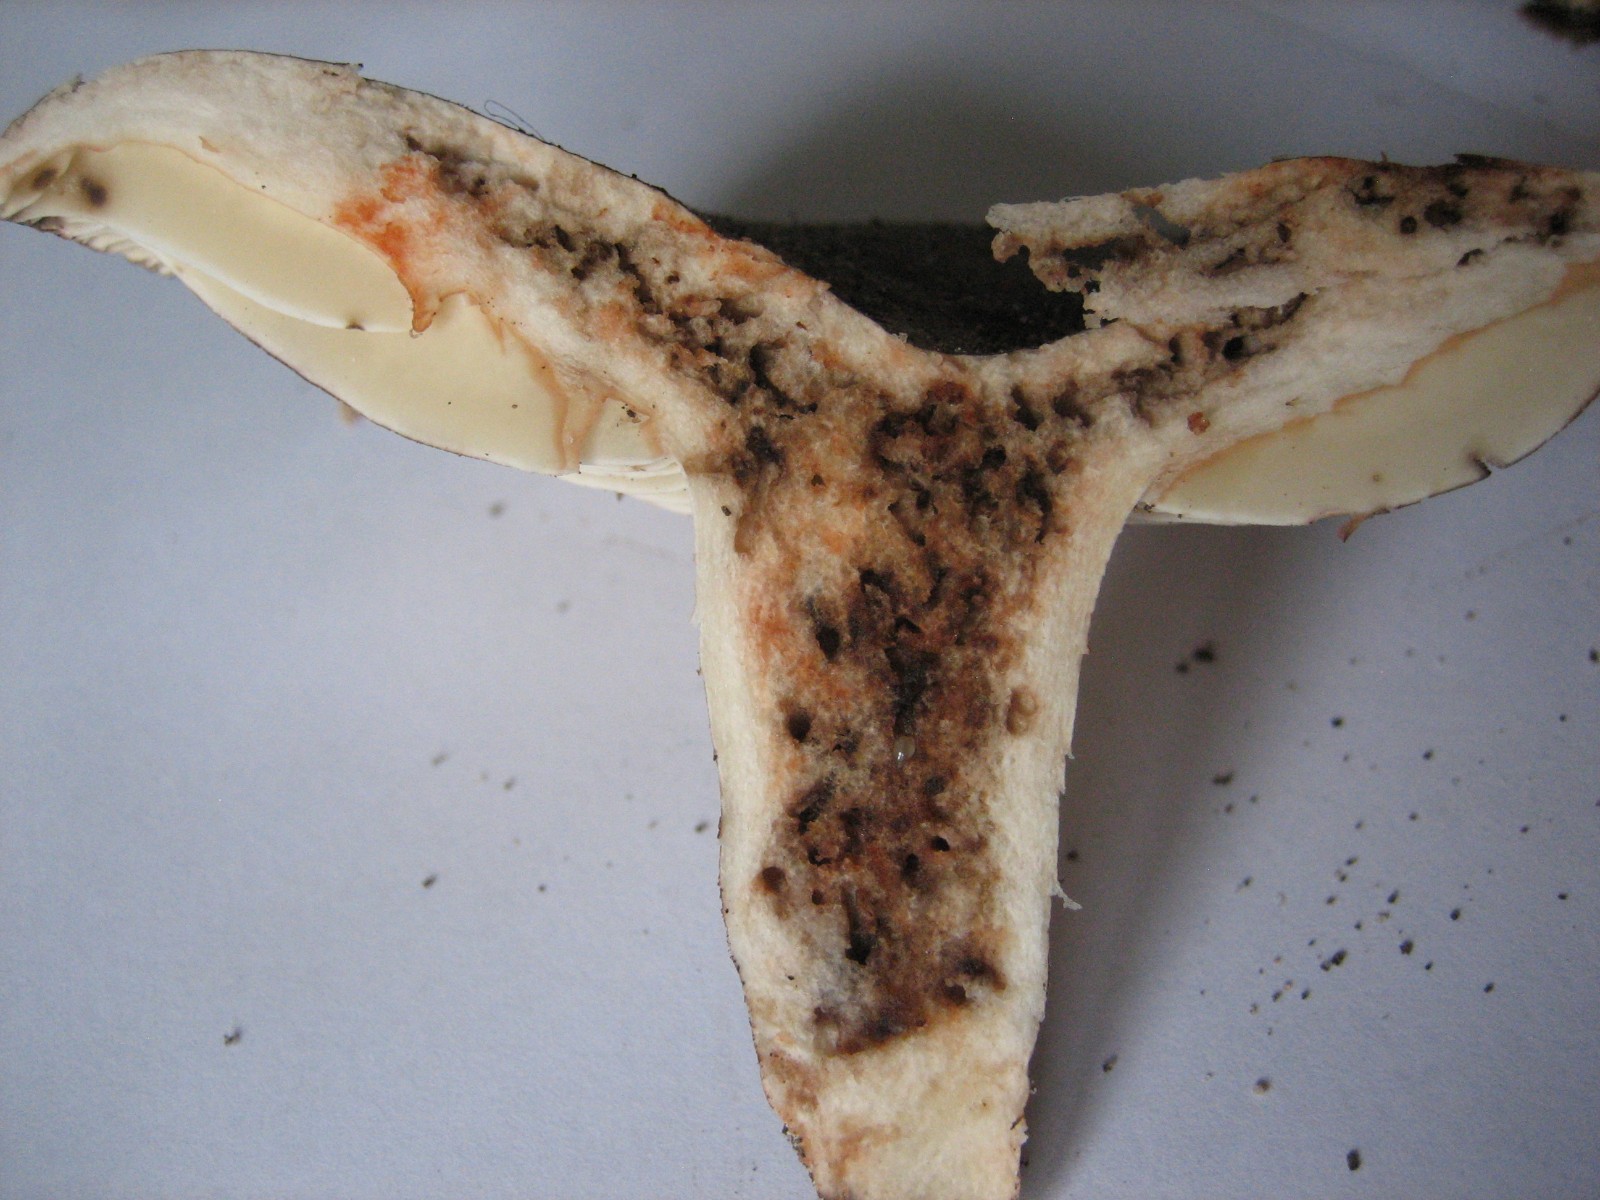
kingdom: Fungi
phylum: Basidiomycota
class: Agaricomycetes
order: Russulales
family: Russulaceae
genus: Russula
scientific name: Russula adusta
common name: sværtende skørhat
